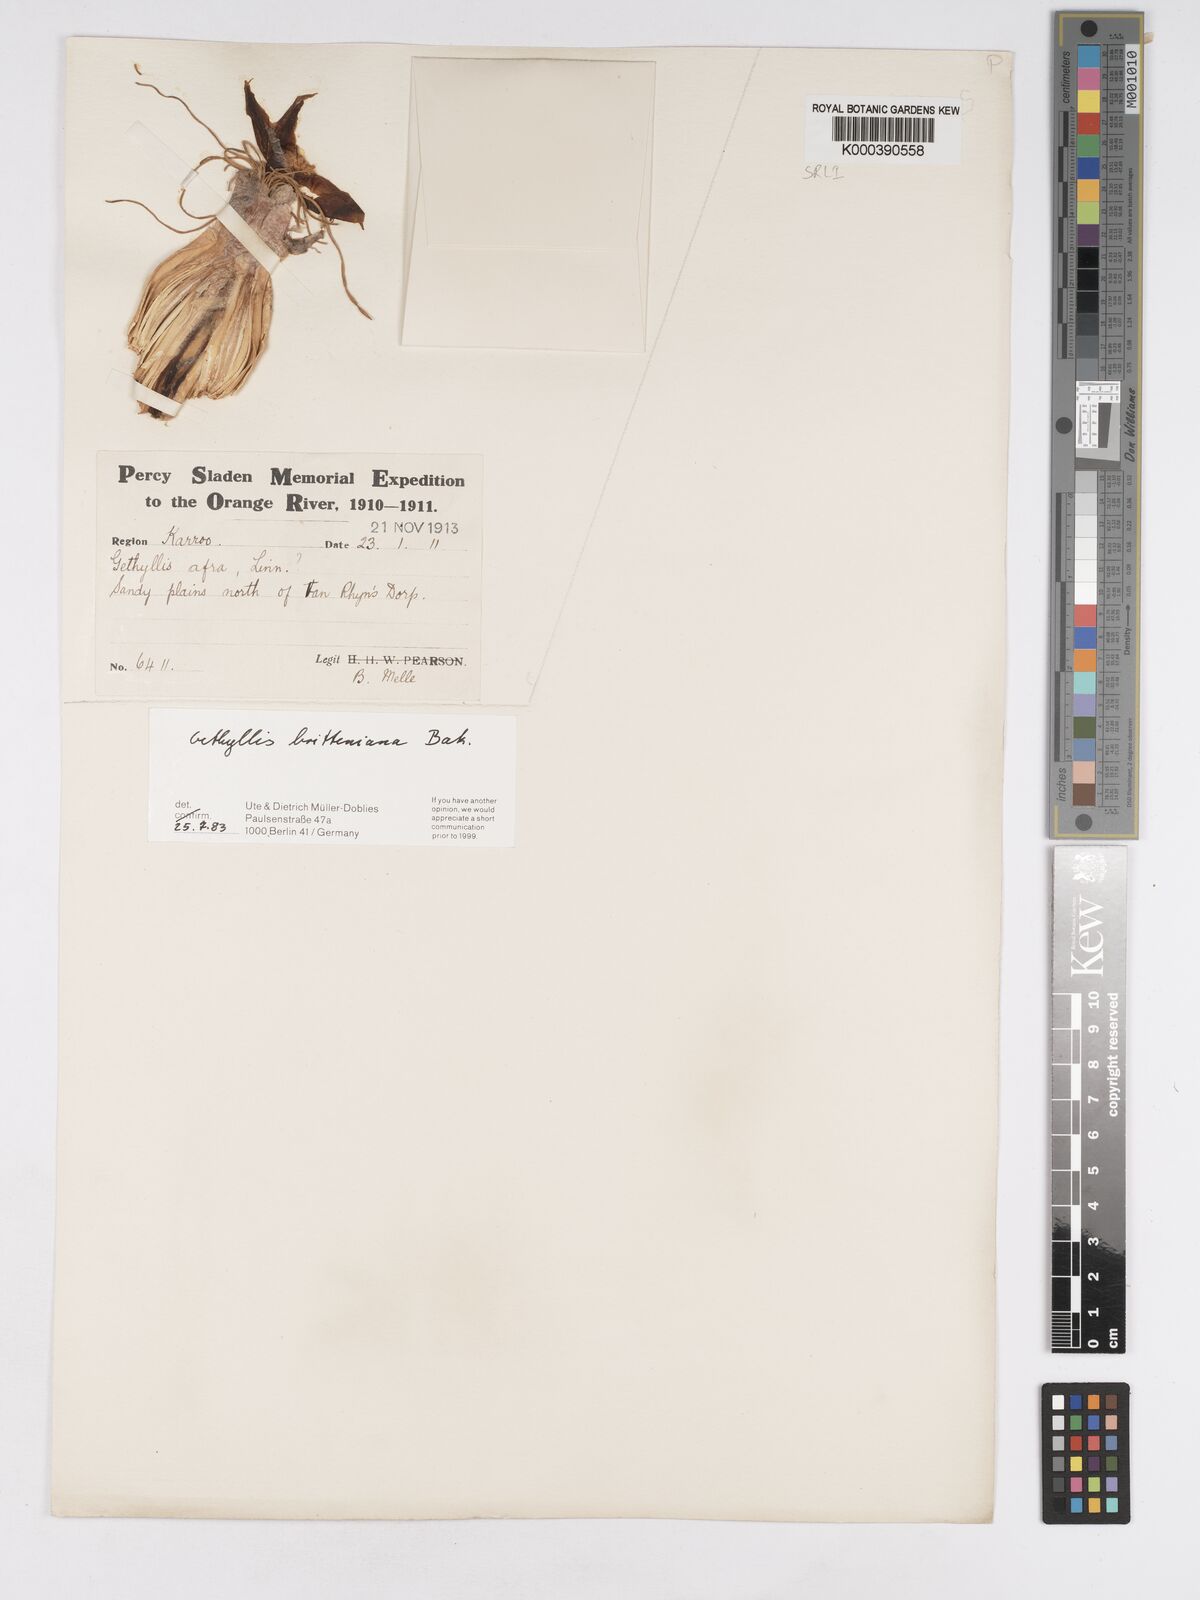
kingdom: Plantae
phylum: Tracheophyta
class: Liliopsida
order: Asparagales
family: Amaryllidaceae
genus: Gethyllis
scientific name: Gethyllis britteniana
